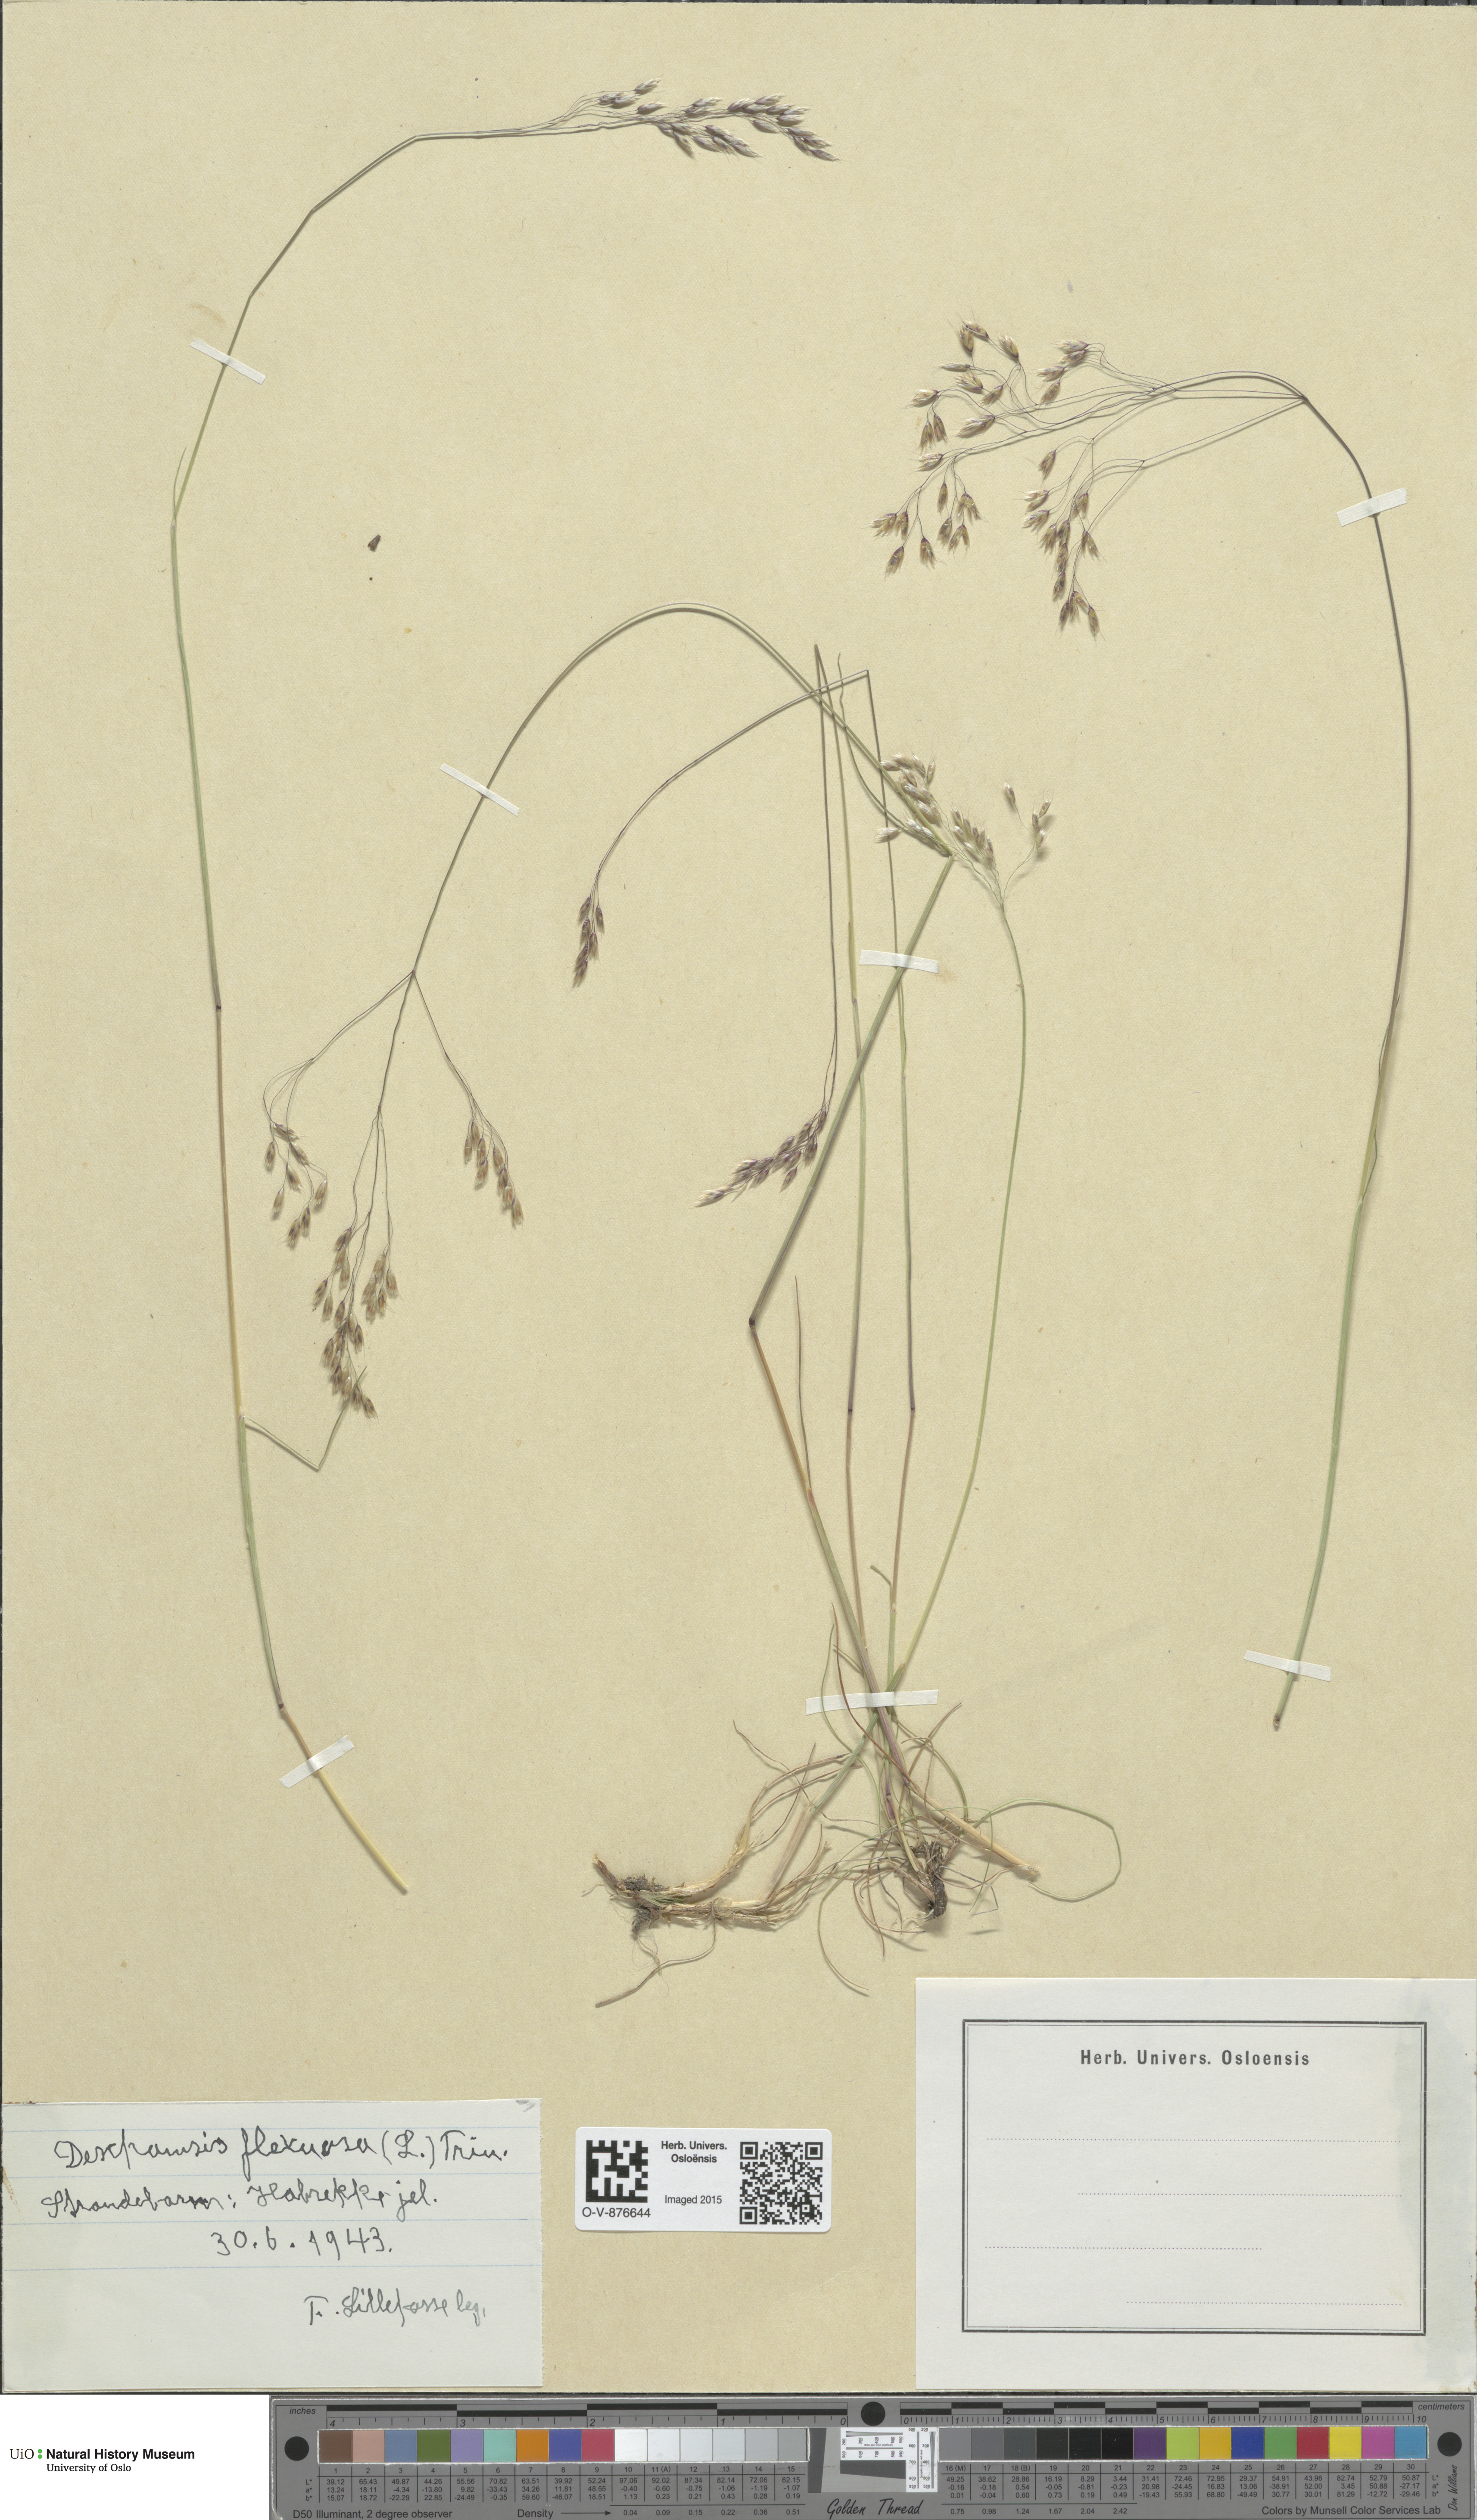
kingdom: Plantae
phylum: Tracheophyta
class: Liliopsida
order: Poales
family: Poaceae
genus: Avenella
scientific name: Avenella flexuosa
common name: Wavy hairgrass
